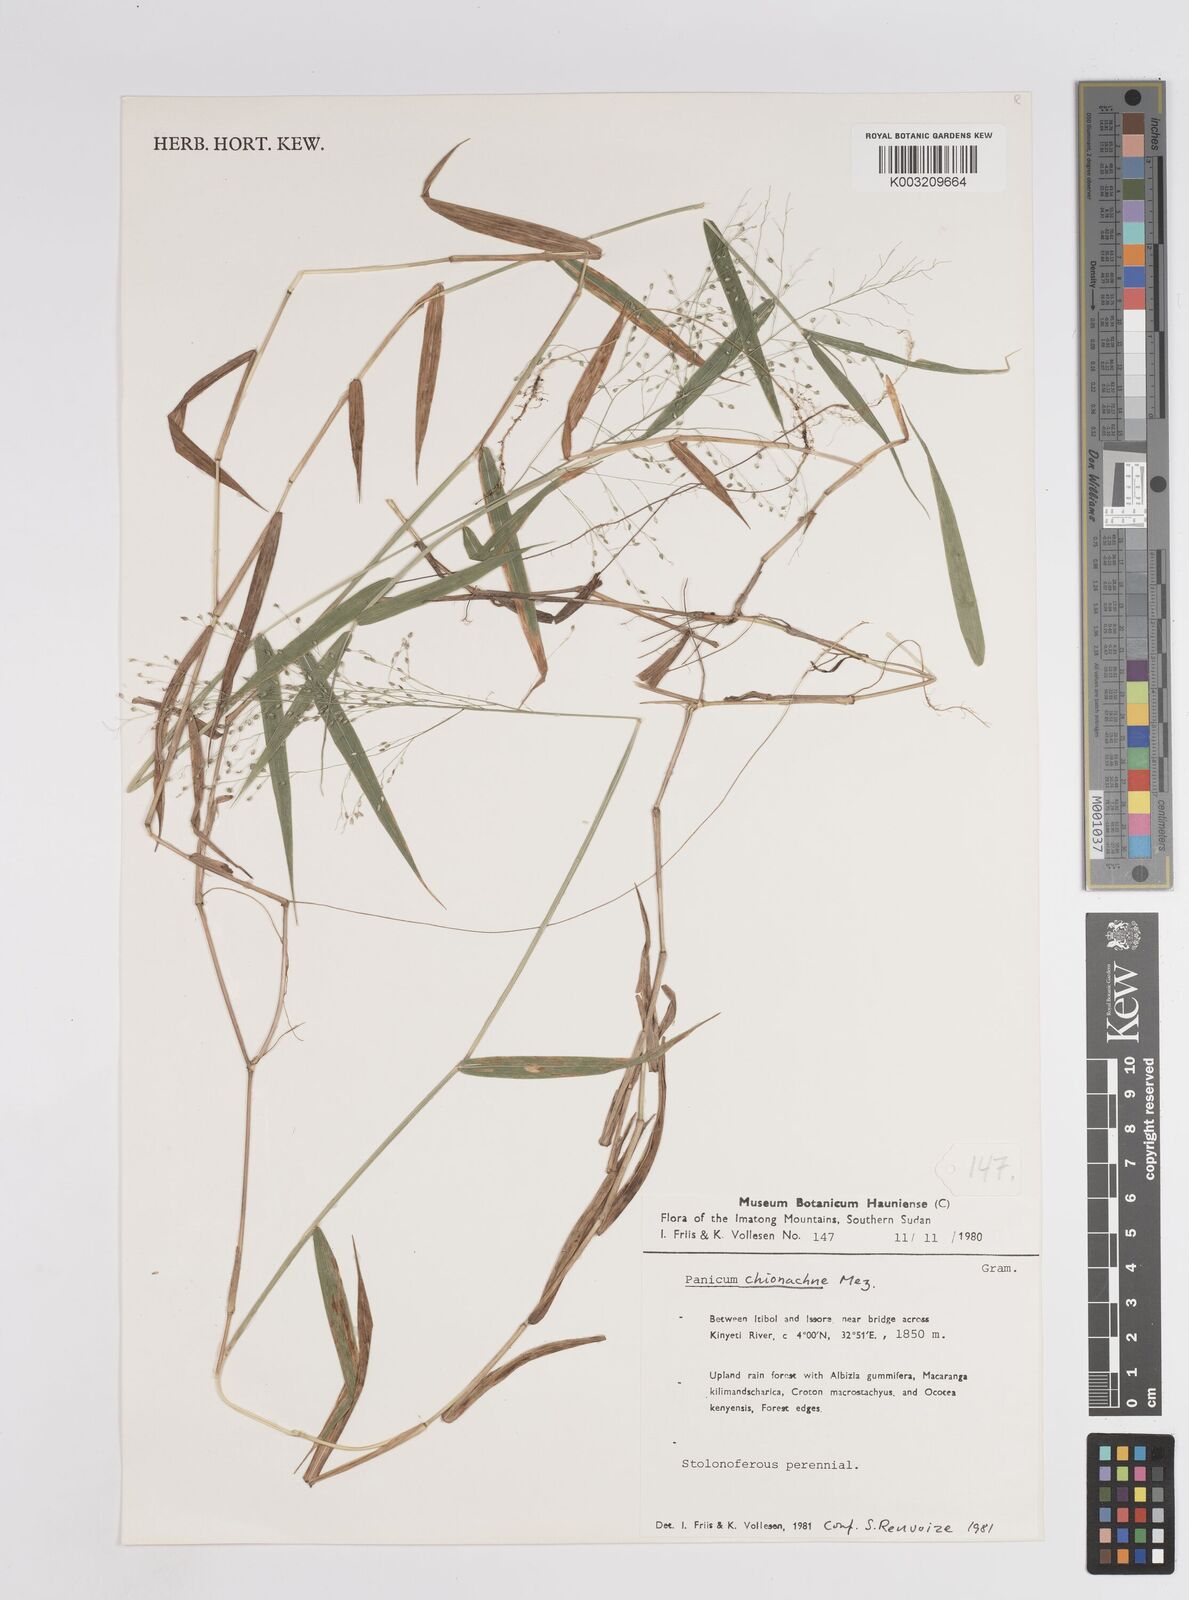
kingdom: Plantae
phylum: Tracheophyta
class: Liliopsida
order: Poales
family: Poaceae
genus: Panicum
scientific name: Panicum chionachne
